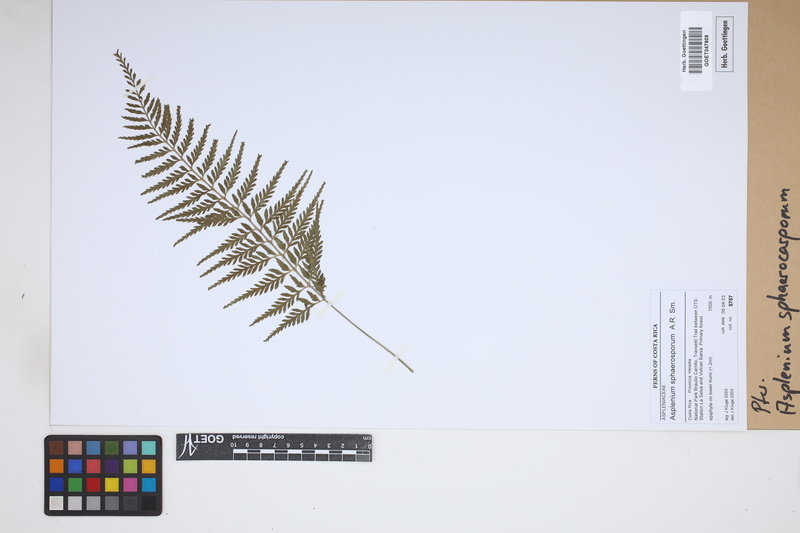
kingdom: Plantae
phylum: Tracheophyta
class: Polypodiopsida
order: Polypodiales
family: Aspleniaceae
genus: Asplenium
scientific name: Asplenium sphaerosporum
